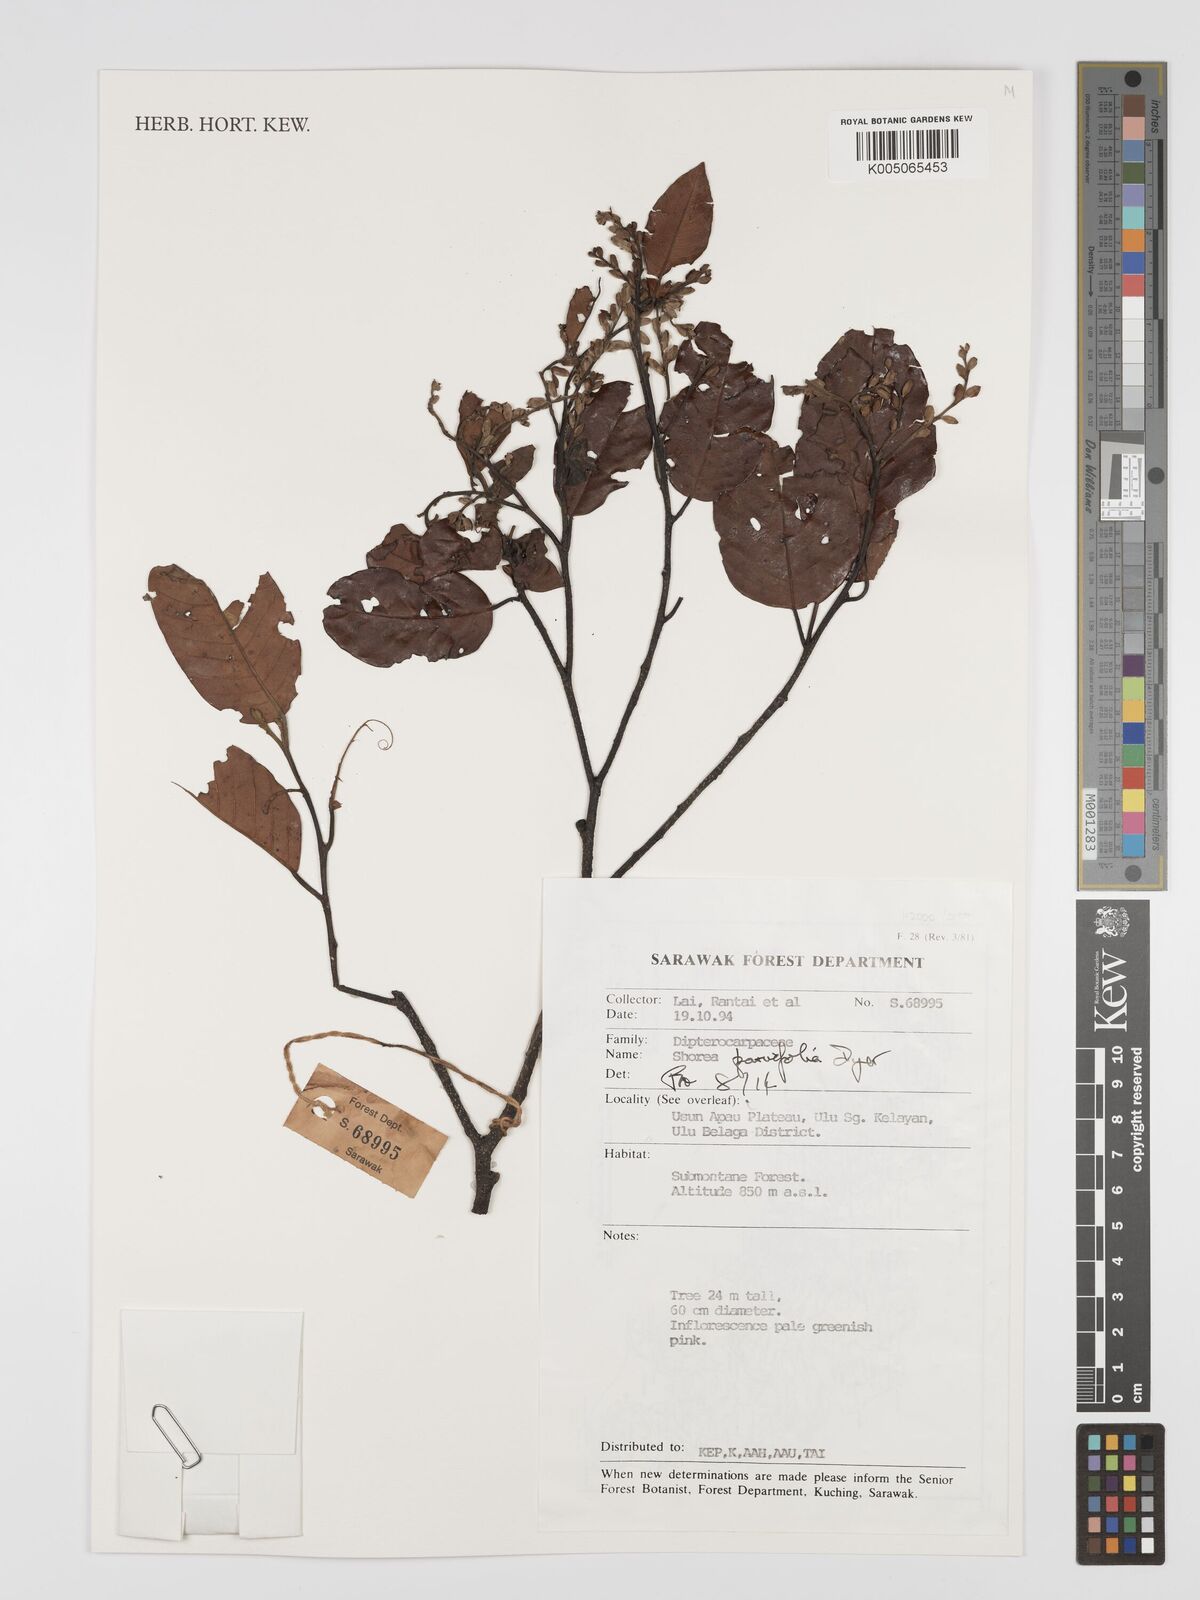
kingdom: Plantae
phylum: Tracheophyta
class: Magnoliopsida
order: Malvales
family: Dipterocarpaceae
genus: Shorea
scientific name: Shorea parvifolia
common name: Light red meranti
